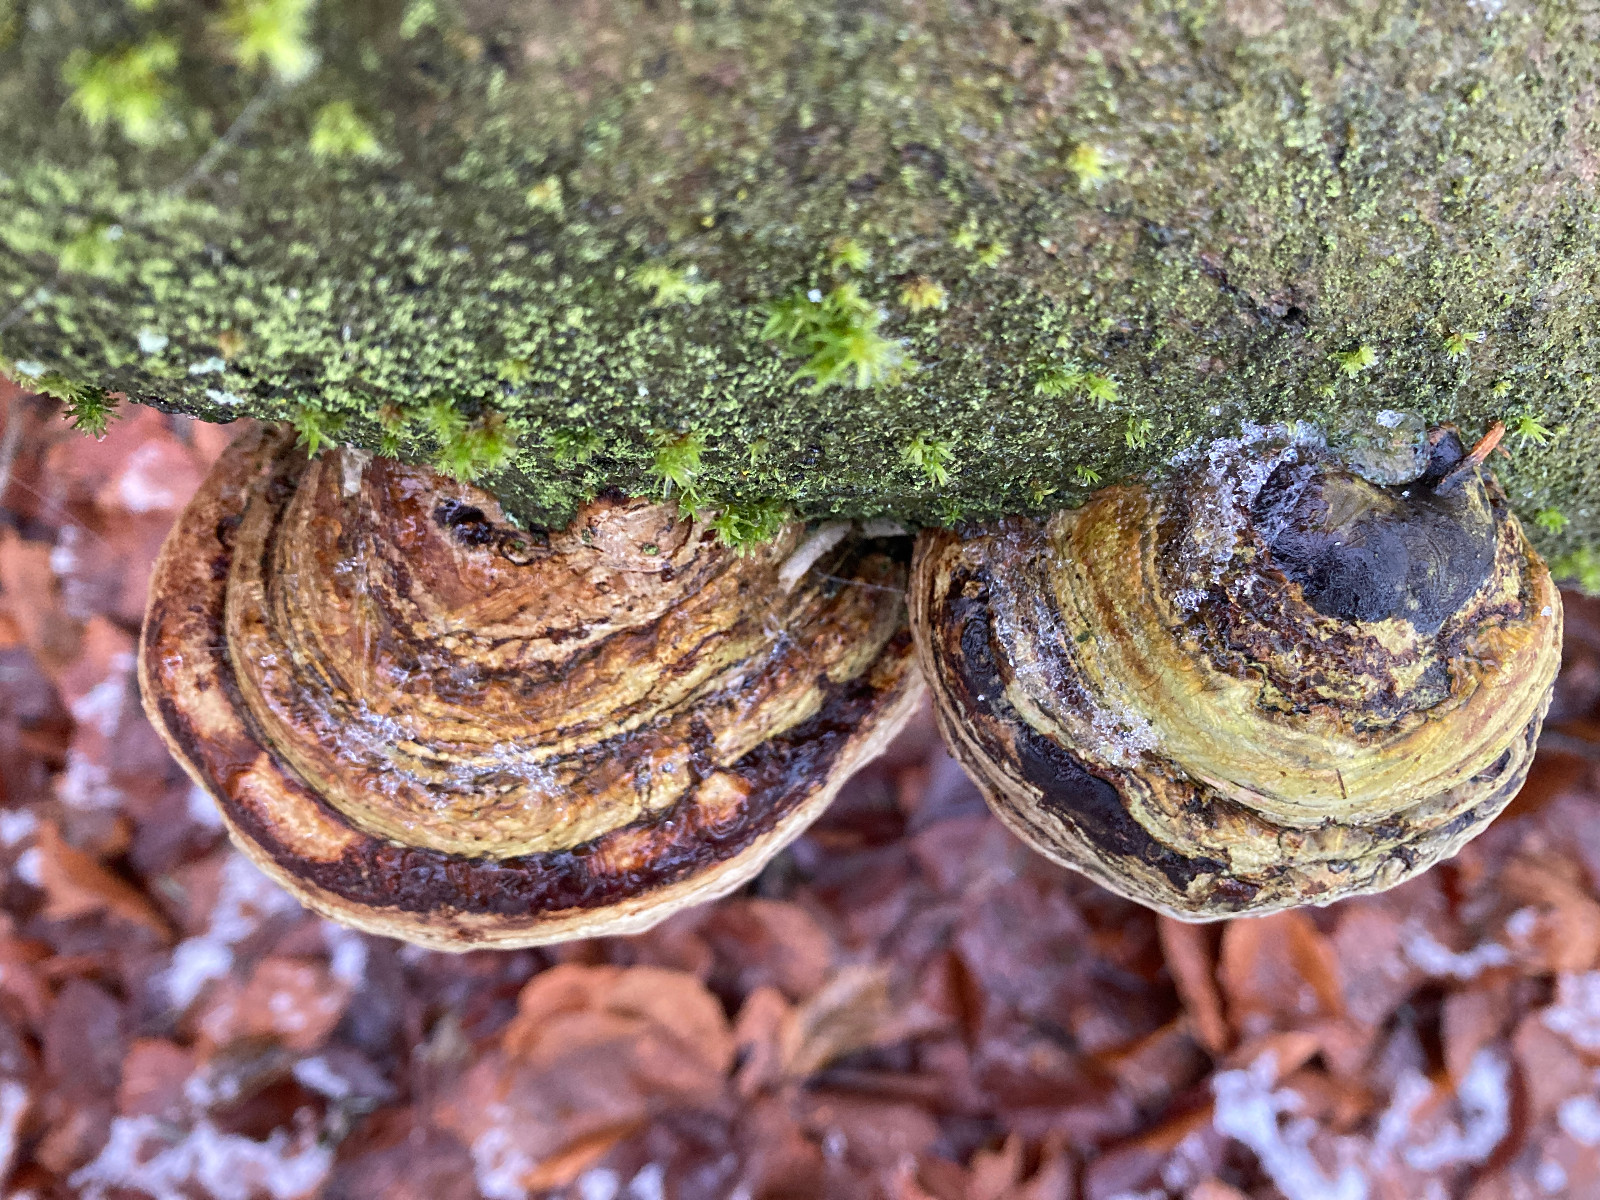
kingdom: Fungi
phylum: Basidiomycota
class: Agaricomycetes
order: Polyporales
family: Polyporaceae
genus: Fomes
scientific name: Fomes fomentarius
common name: tøndersvamp
